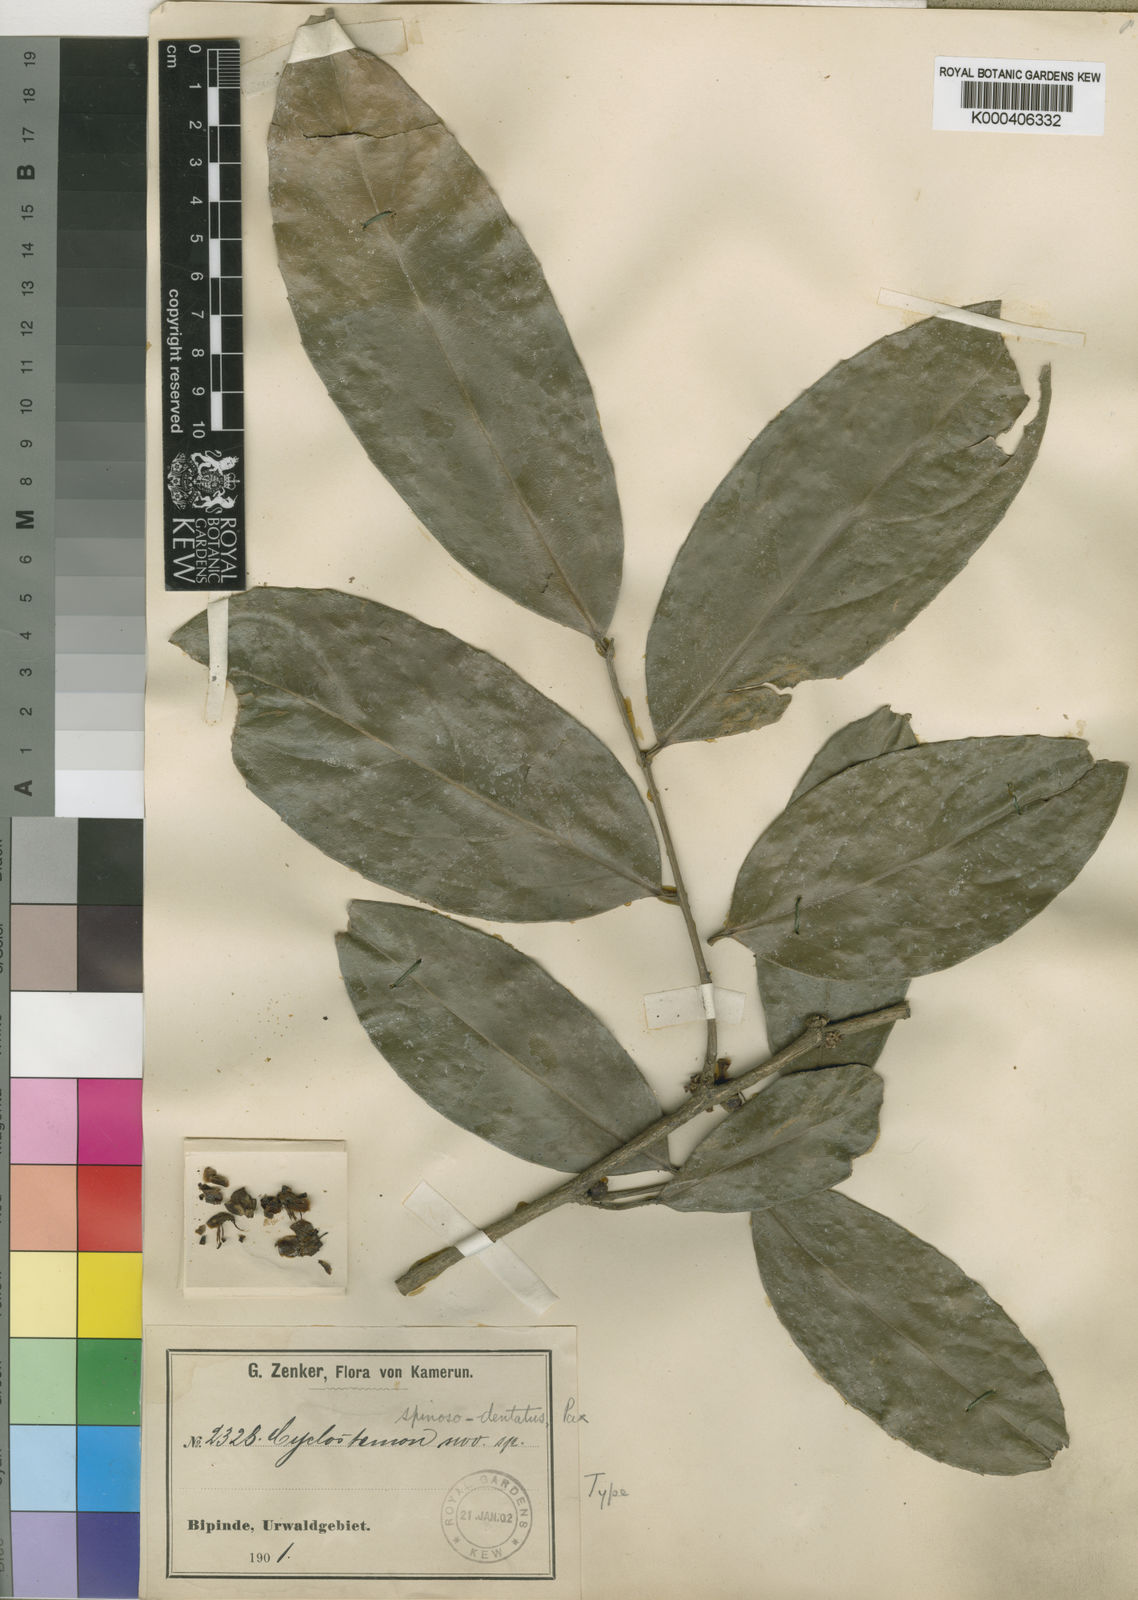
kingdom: Plantae
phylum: Tracheophyta
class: Magnoliopsida
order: Malpighiales
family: Putranjivaceae
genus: Drypetes
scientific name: Drypetes spinosodentata
